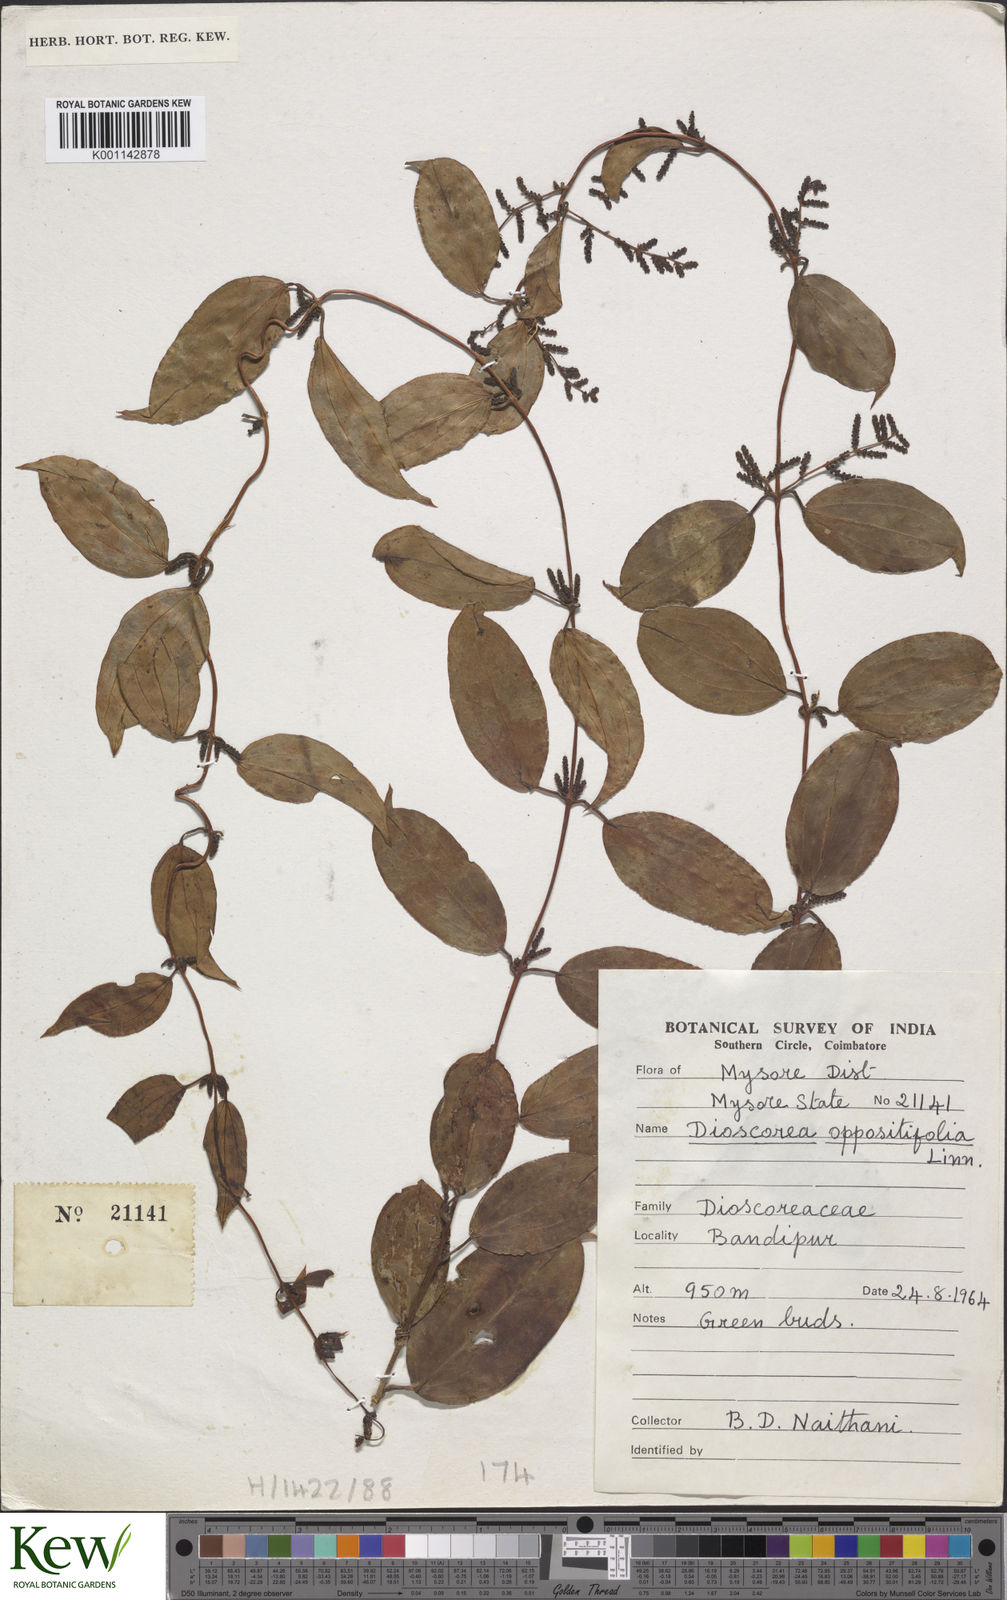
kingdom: Plantae
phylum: Tracheophyta
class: Liliopsida
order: Dioscoreales
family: Dioscoreaceae
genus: Dioscorea
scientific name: Dioscorea oppositifolia
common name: Chinese yam
